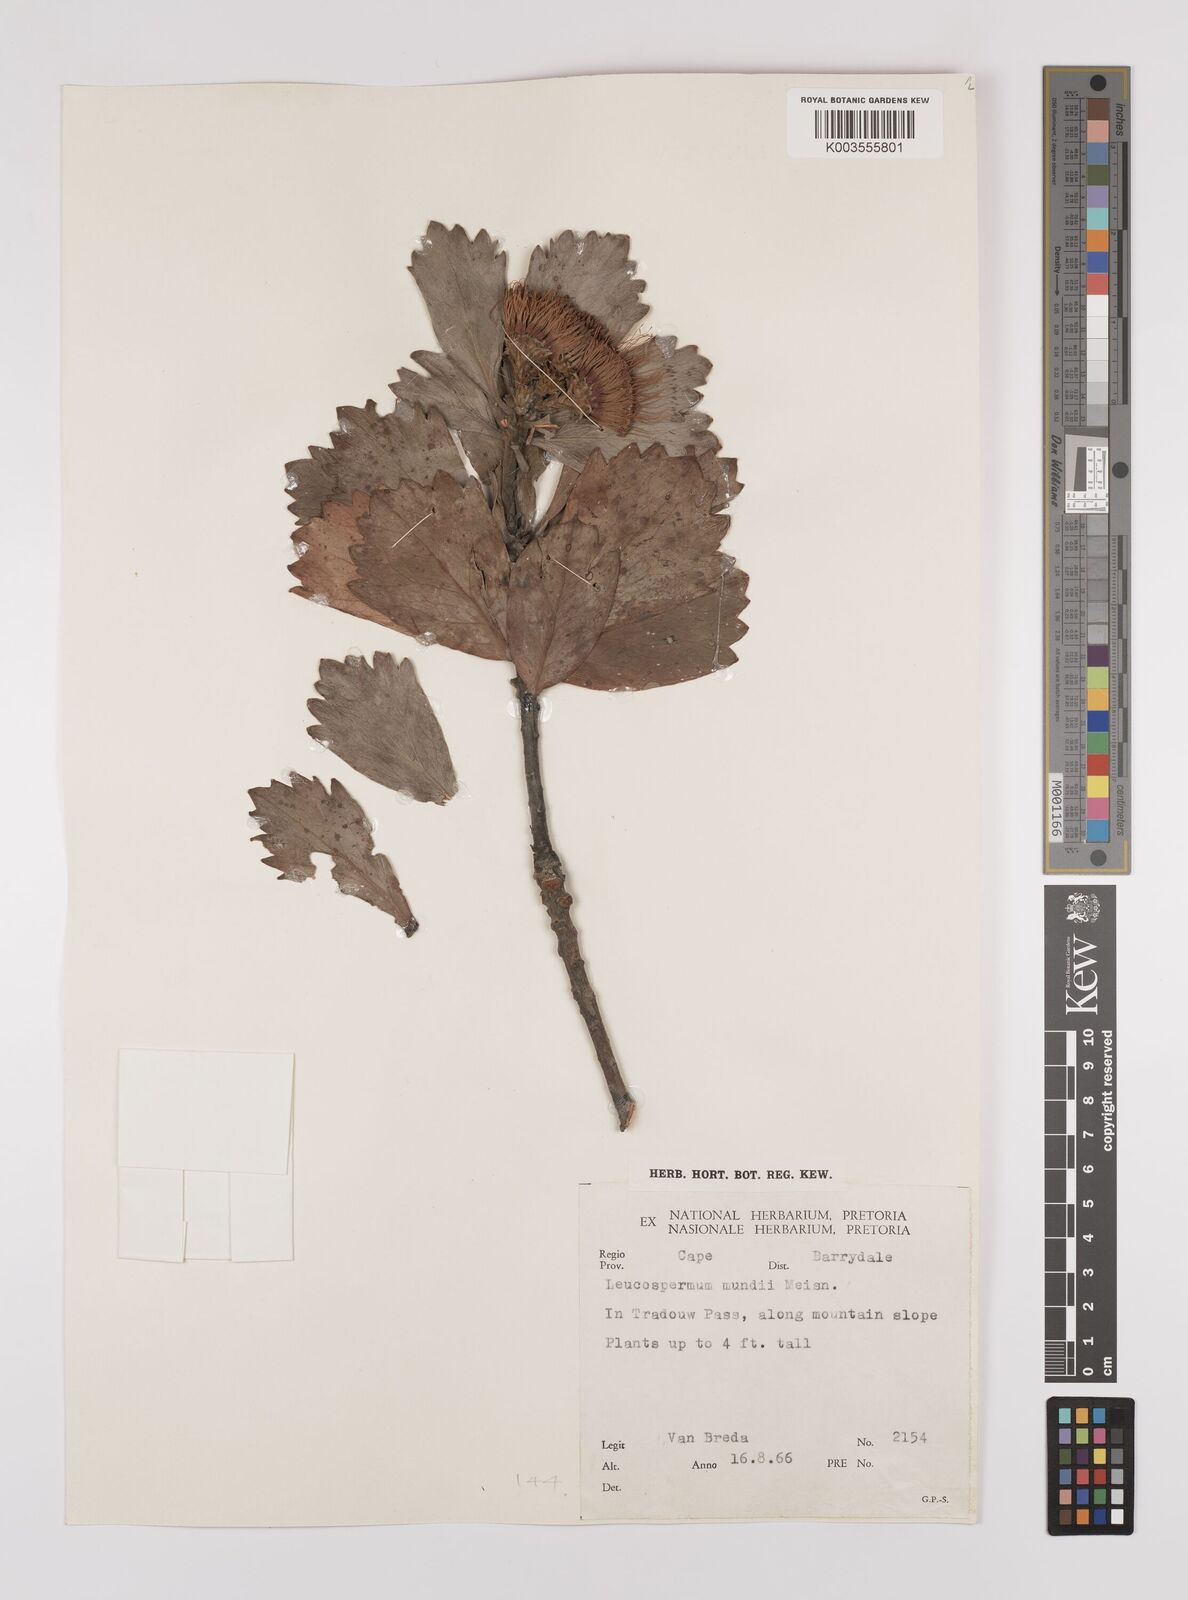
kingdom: Plantae
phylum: Tracheophyta
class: Magnoliopsida
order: Proteales
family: Proteaceae
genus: Leucospermum
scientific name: Leucospermum mundii
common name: Langeberg pincushion
